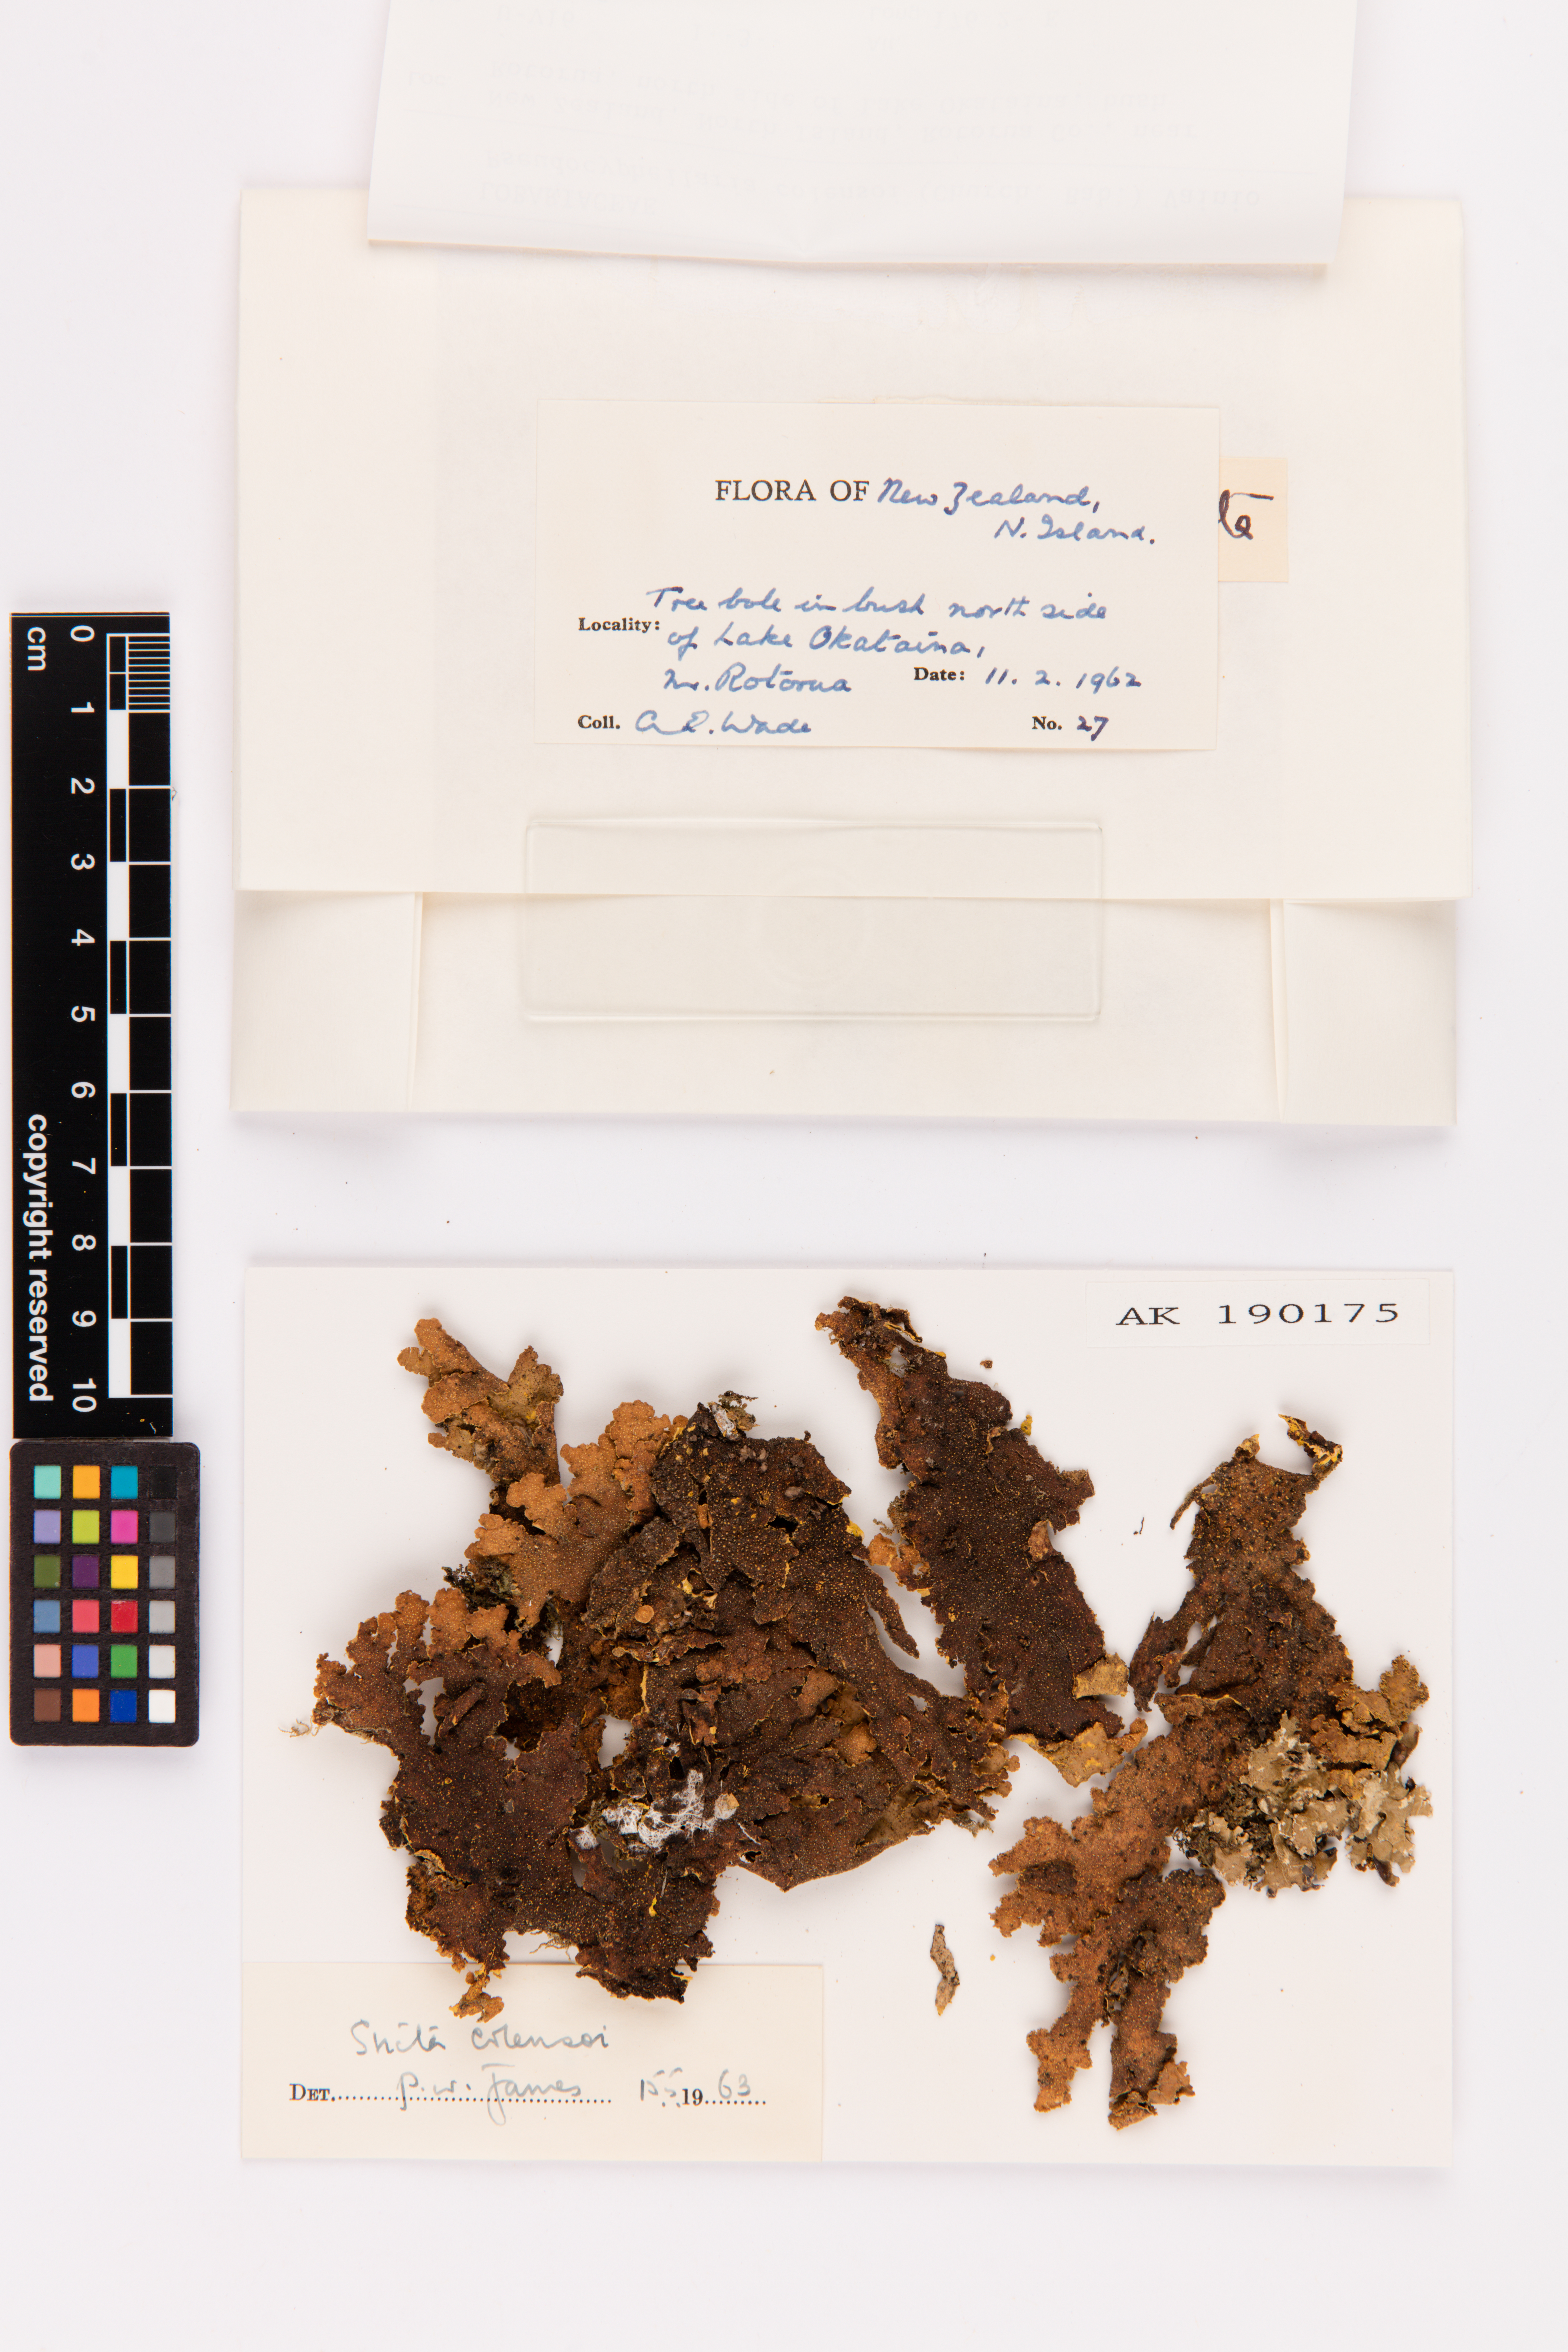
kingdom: Fungi
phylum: Ascomycota
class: Lecanoromycetes
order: Peltigerales
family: Lobariaceae
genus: Yarrumia
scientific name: Yarrumia colensoi
